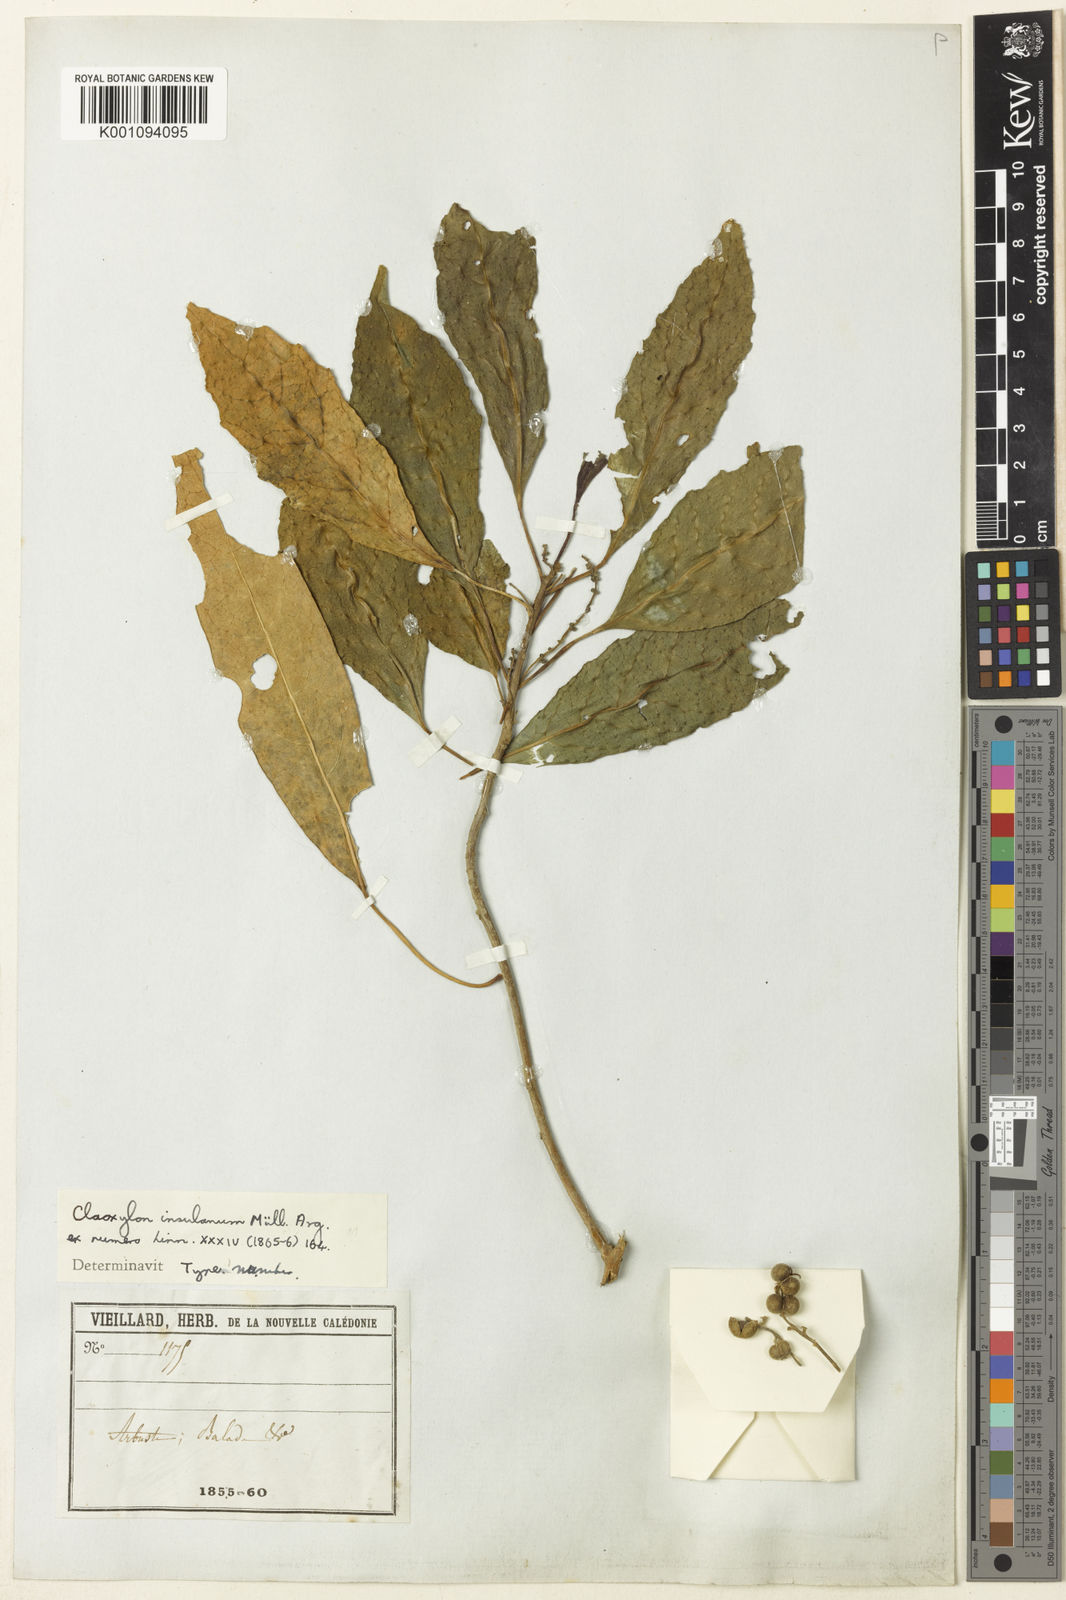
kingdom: Plantae
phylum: Tracheophyta
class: Magnoliopsida
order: Malpighiales
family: Euphorbiaceae
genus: Claoxylon
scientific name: Claoxylon
